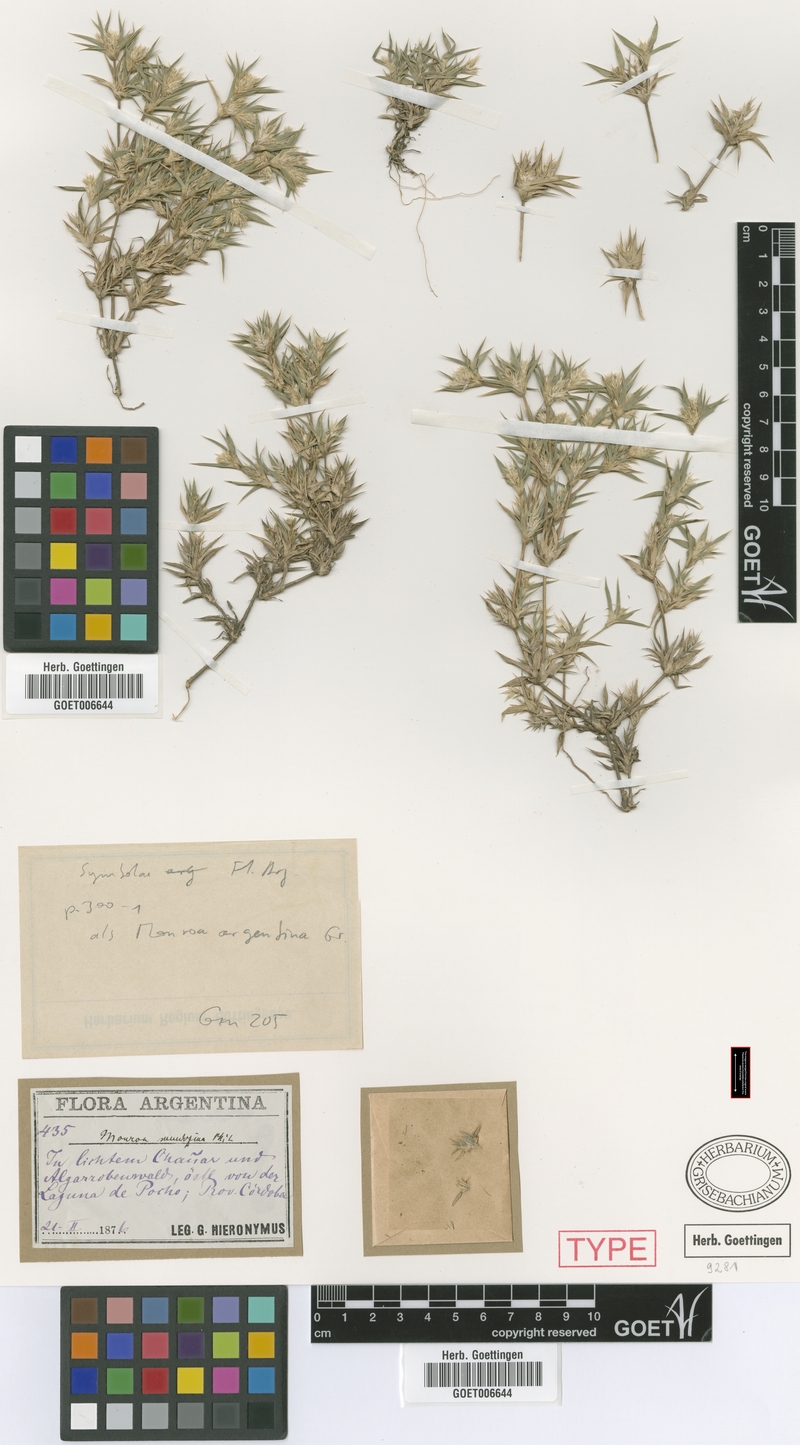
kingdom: Plantae
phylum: Tracheophyta
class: Liliopsida
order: Poales
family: Poaceae
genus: Munroa
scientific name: Munroa argentina
